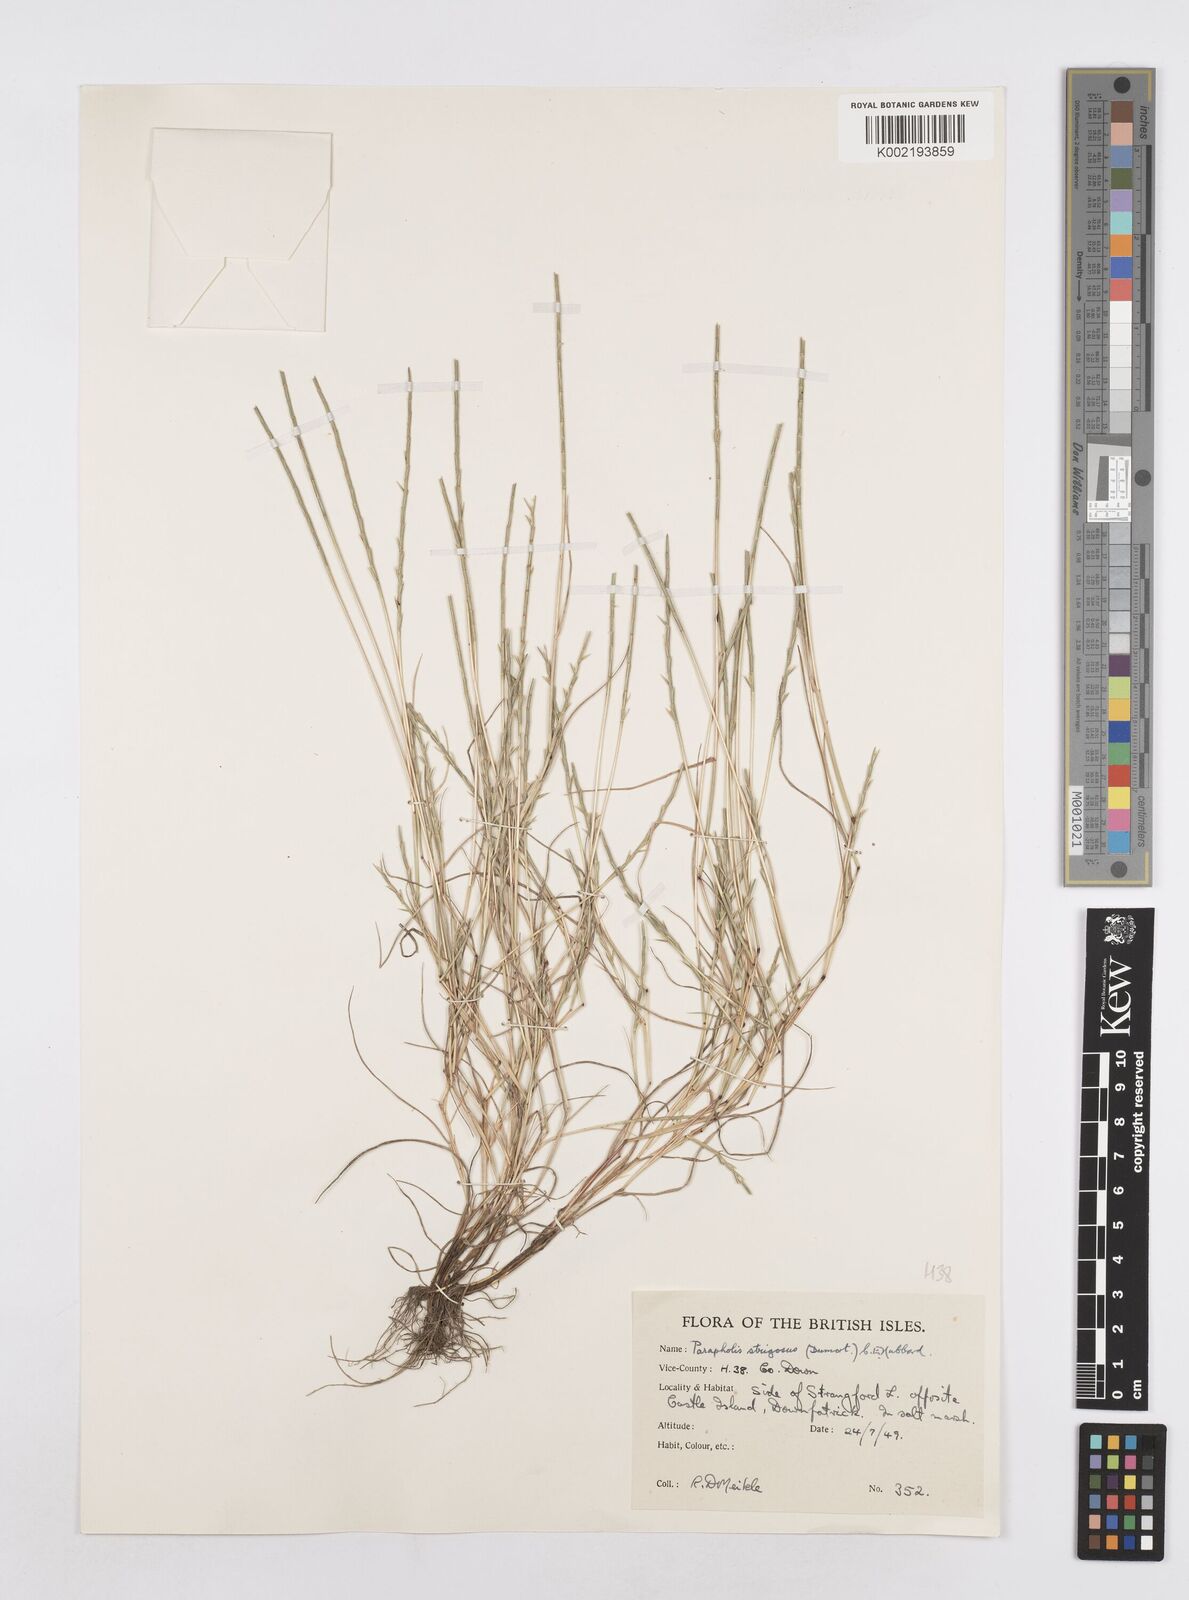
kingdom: Plantae
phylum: Tracheophyta
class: Liliopsida
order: Poales
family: Poaceae
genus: Parapholis
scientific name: Parapholis strigosa
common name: Hard-grass
